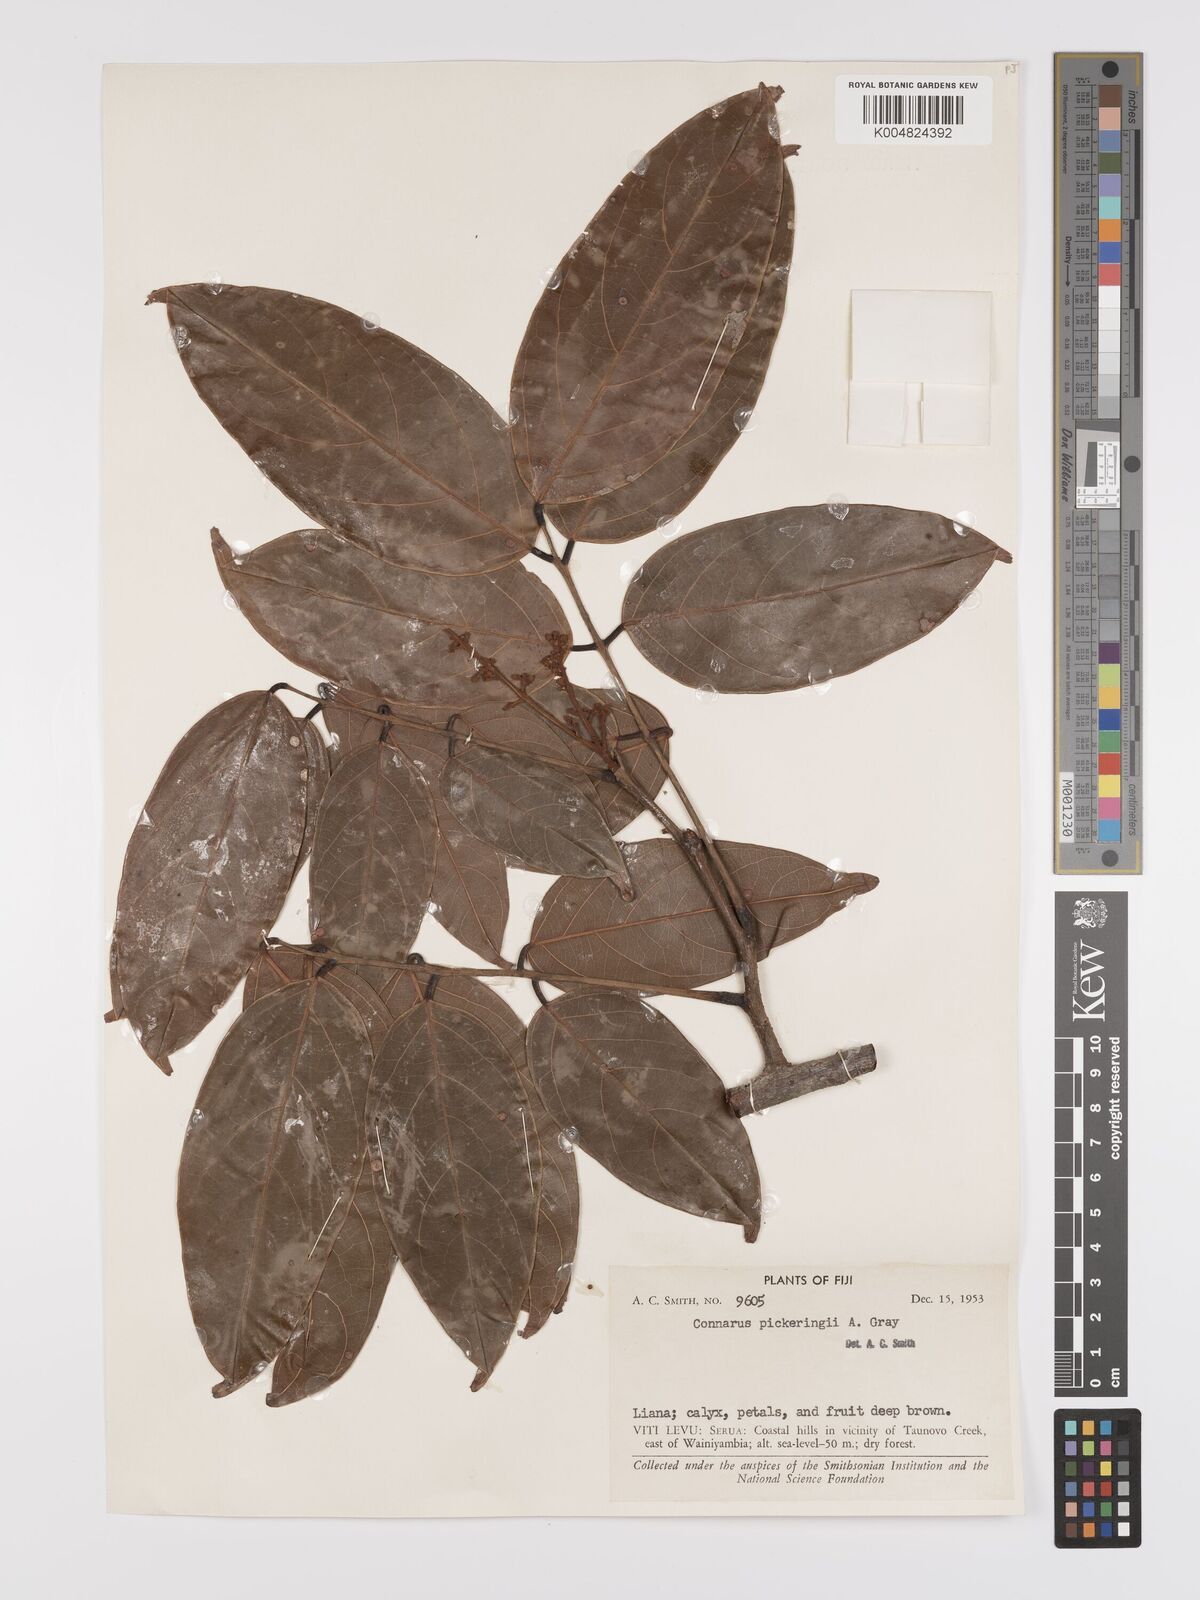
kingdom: Plantae
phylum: Tracheophyta
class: Magnoliopsida
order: Oxalidales
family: Connaraceae
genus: Connarus
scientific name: Connarus pickeringii
